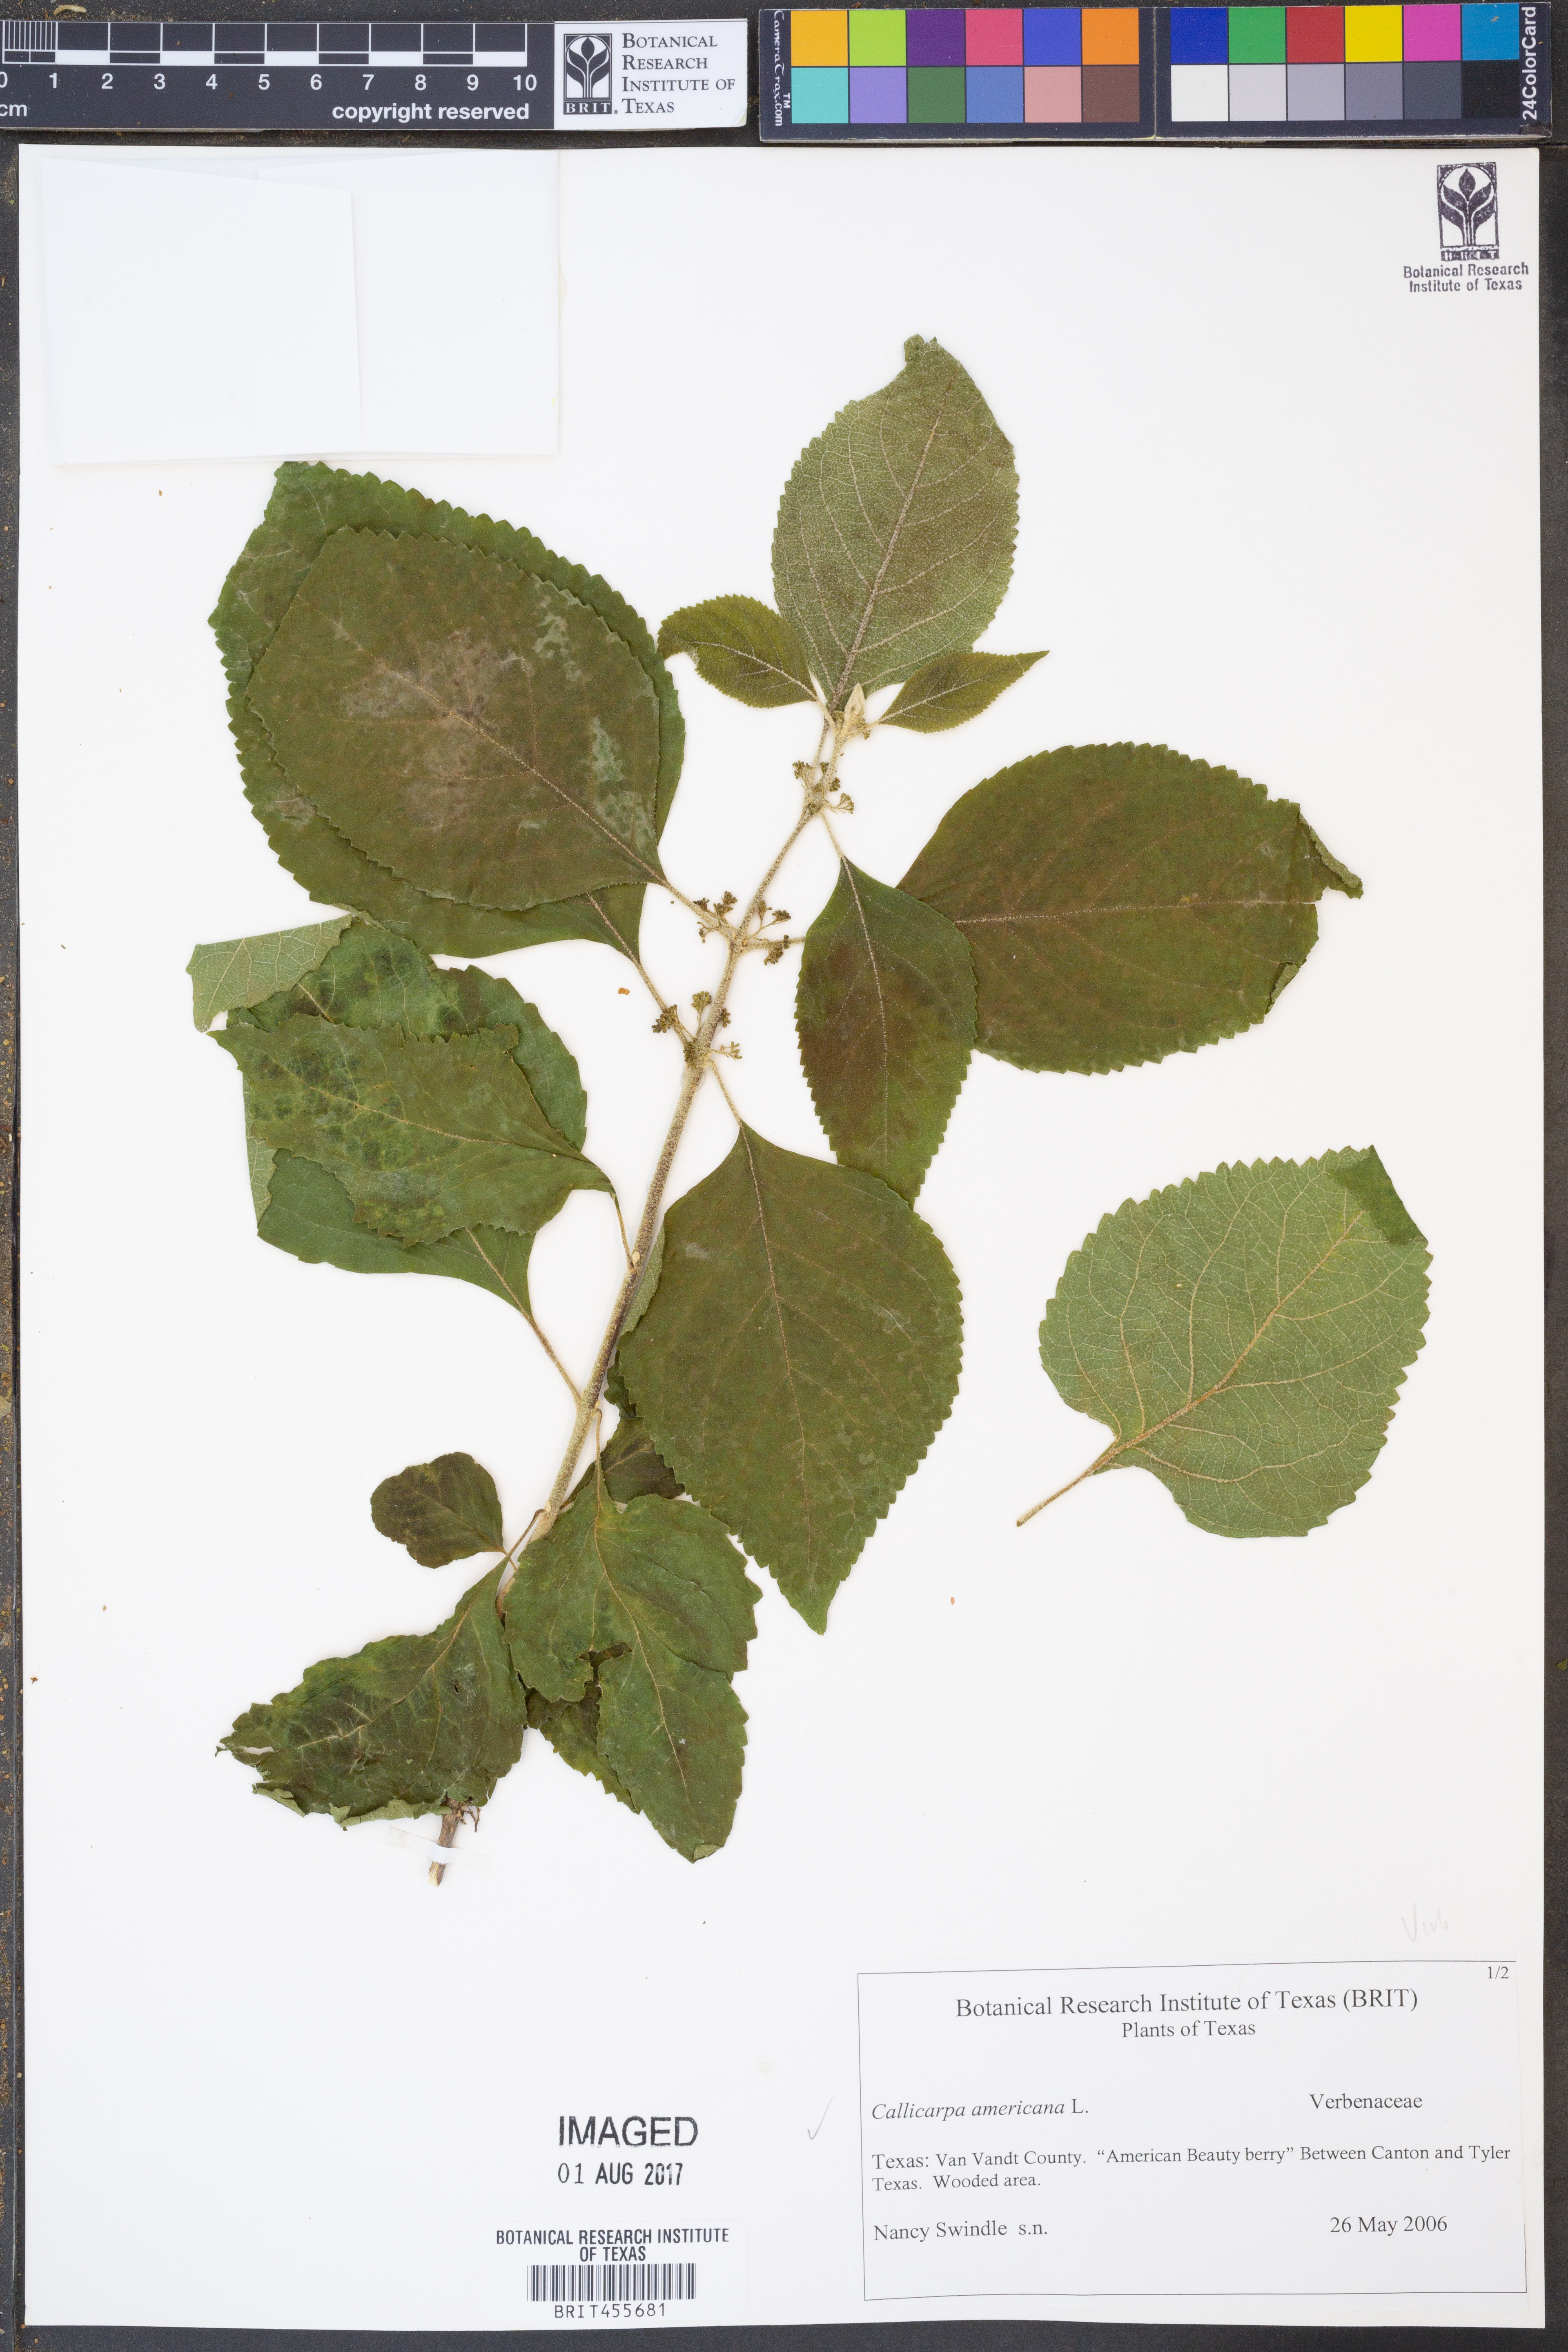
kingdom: Plantae
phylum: Tracheophyta
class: Magnoliopsida
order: Lamiales
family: Lamiaceae
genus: Callicarpa
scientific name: Callicarpa americana
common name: American beautyberry
